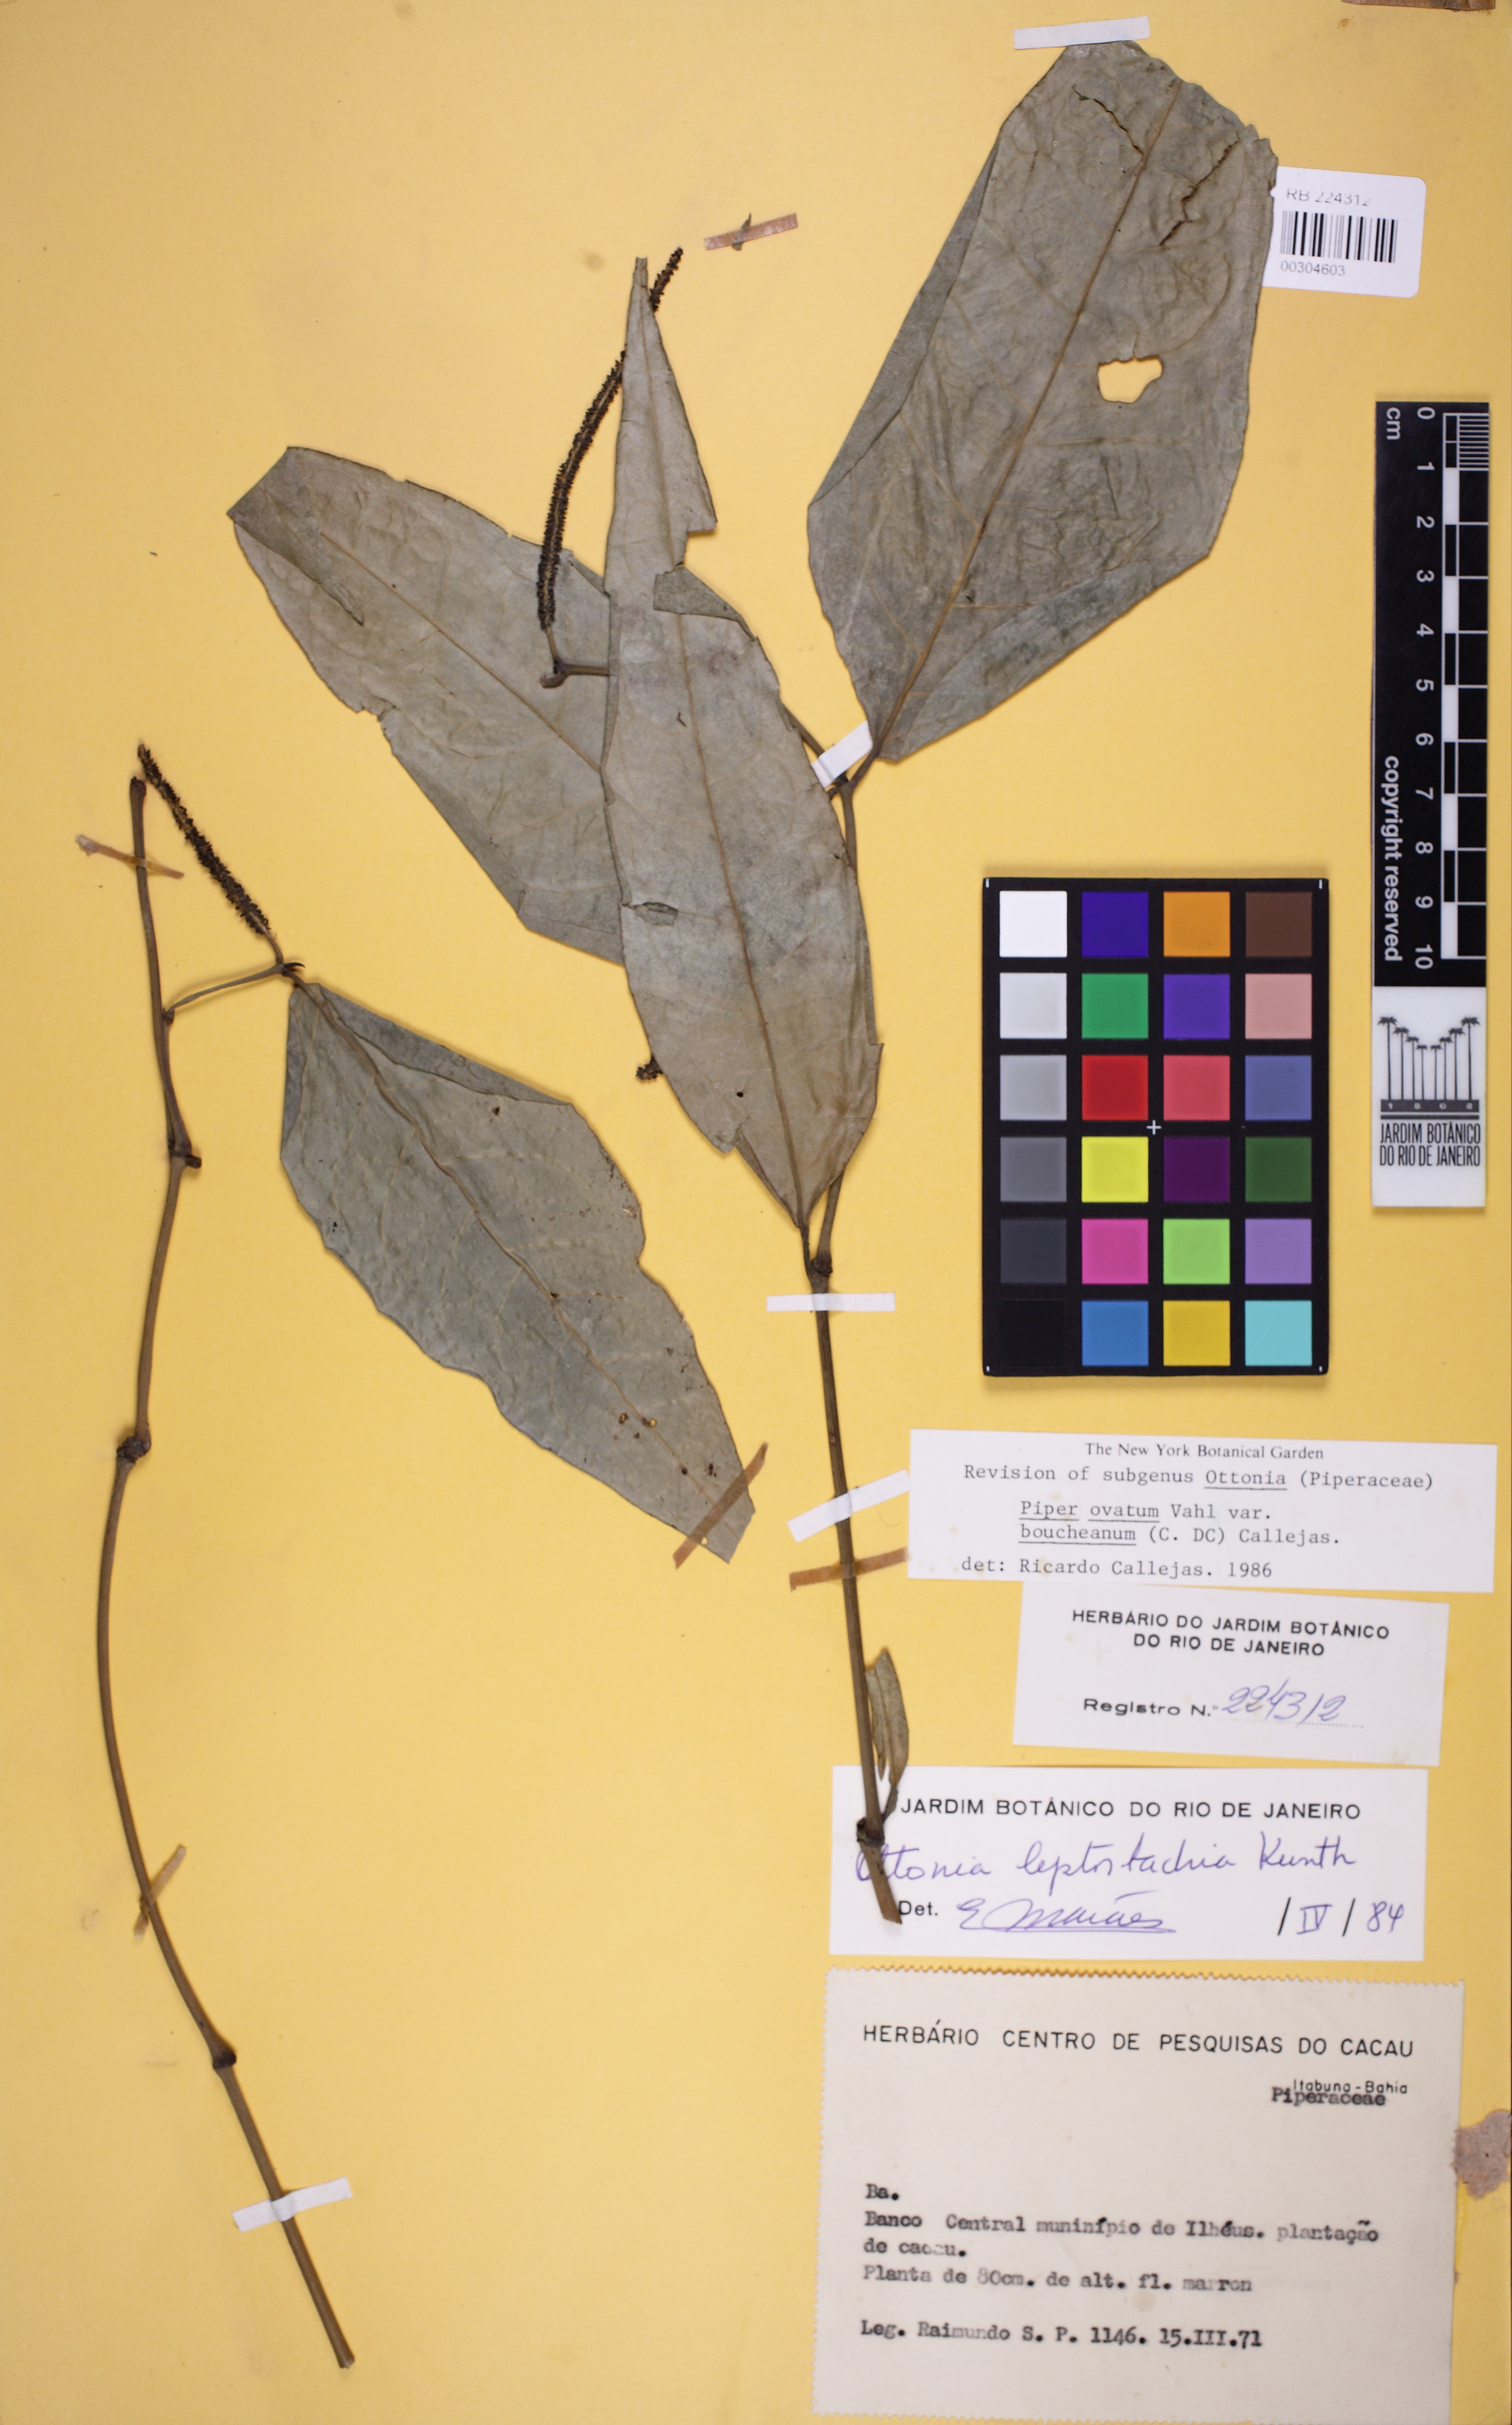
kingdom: Plantae
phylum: Tracheophyta
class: Magnoliopsida
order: Piperales
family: Piperaceae
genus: Piper
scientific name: Piper ovatum
